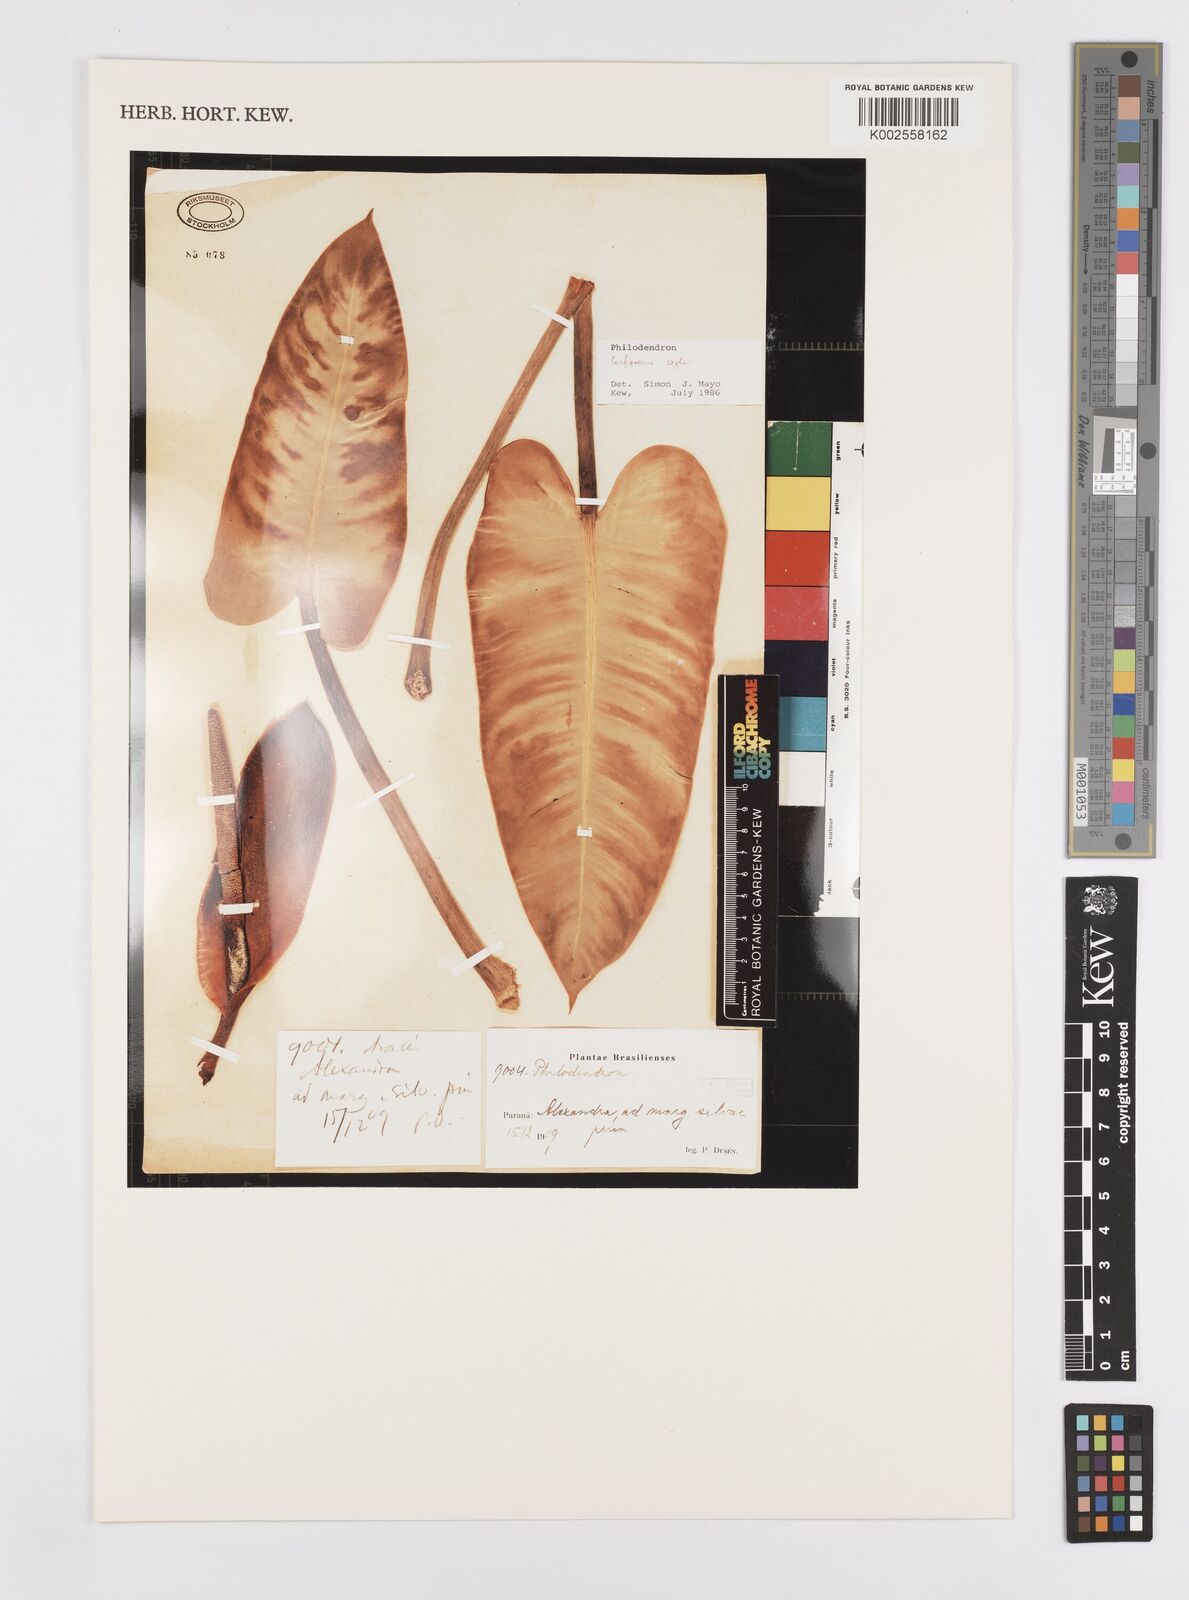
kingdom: Plantae
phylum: Tracheophyta
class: Liliopsida
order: Alismatales
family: Araceae
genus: Philodendron
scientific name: Philodendron loefgrenii
